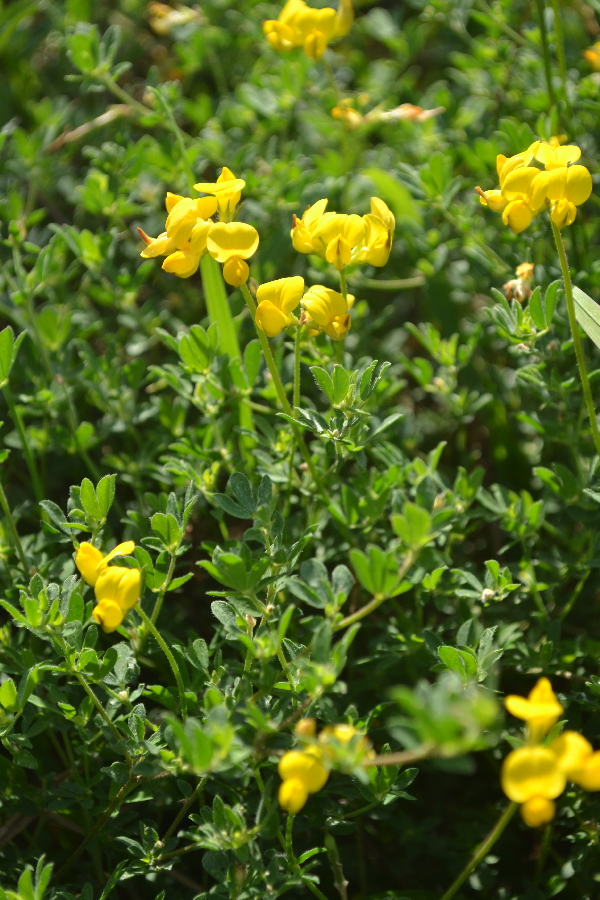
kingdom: Plantae
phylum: Tracheophyta
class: Magnoliopsida
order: Fabales
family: Fabaceae
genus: Lotus
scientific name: Lotus corniculatus
